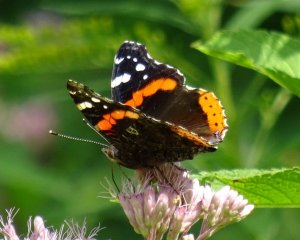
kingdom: Animalia
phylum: Arthropoda
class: Insecta
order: Lepidoptera
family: Nymphalidae
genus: Vanessa
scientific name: Vanessa atalanta
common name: Red Admiral
